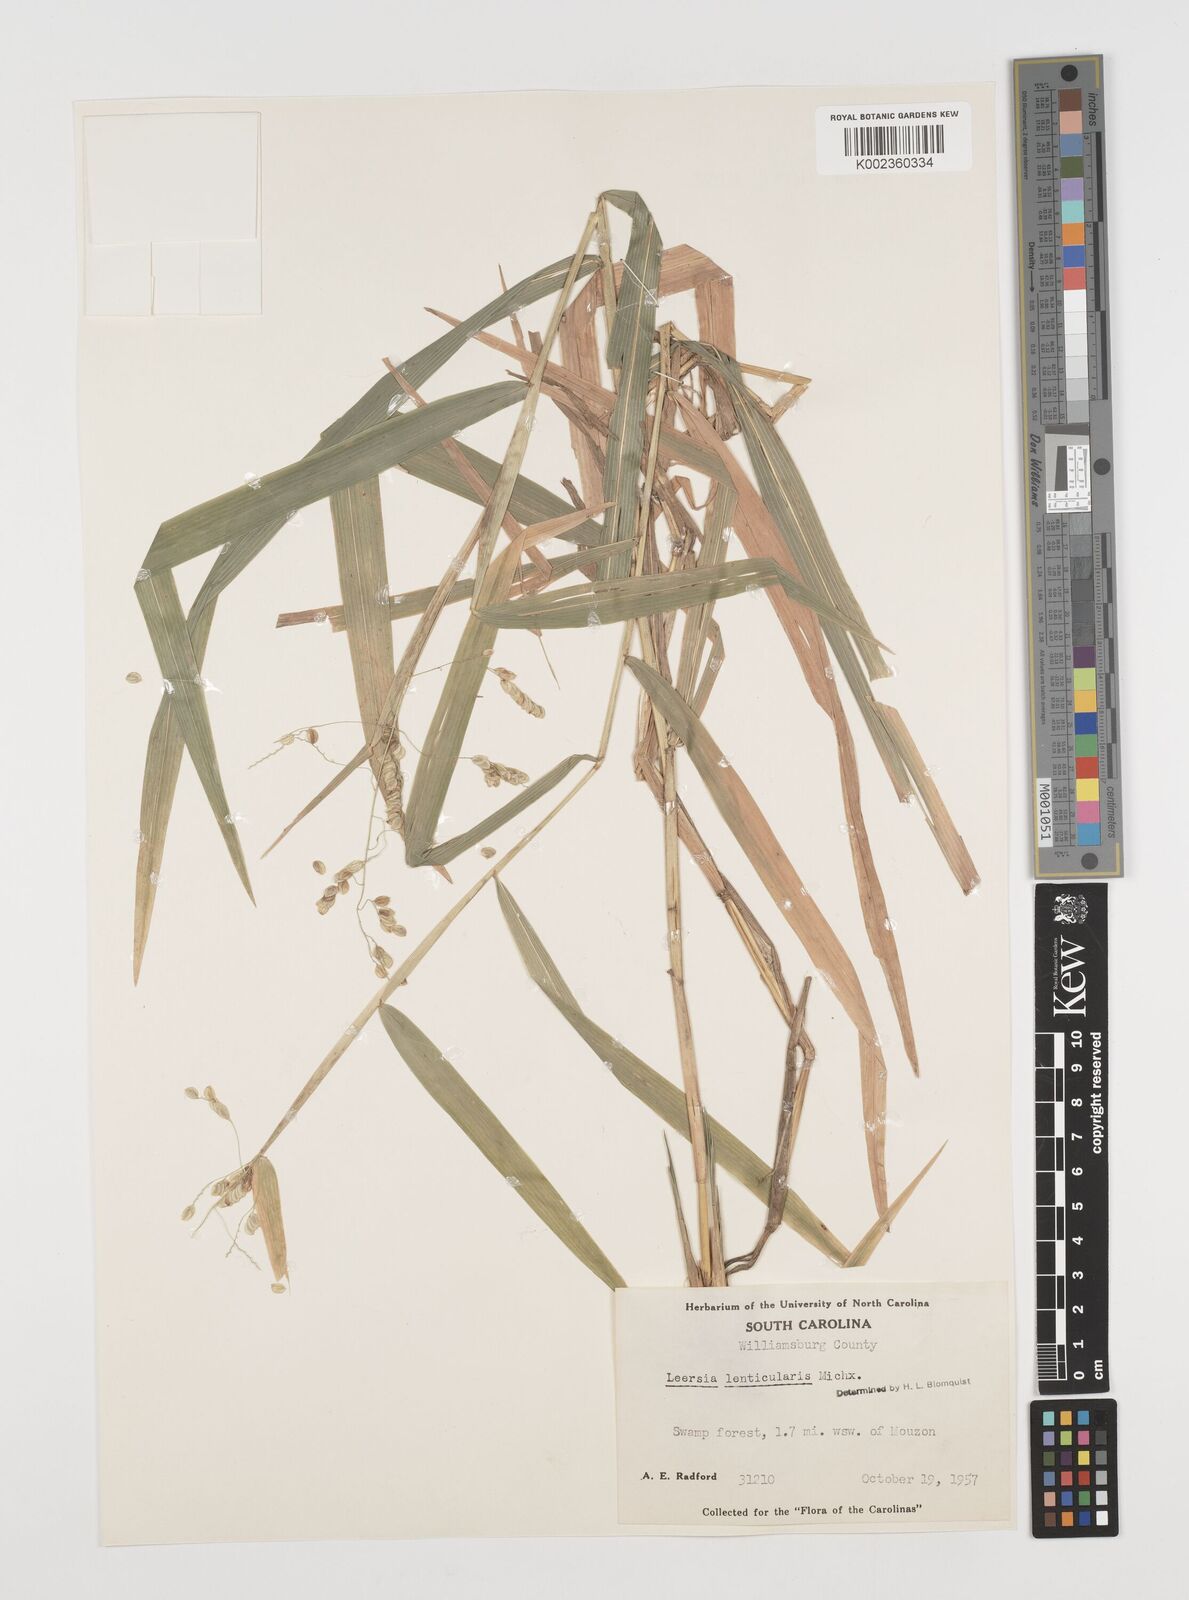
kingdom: Plantae
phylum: Tracheophyta
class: Liliopsida
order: Poales
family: Poaceae
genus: Leersia
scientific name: Leersia lenticularis
